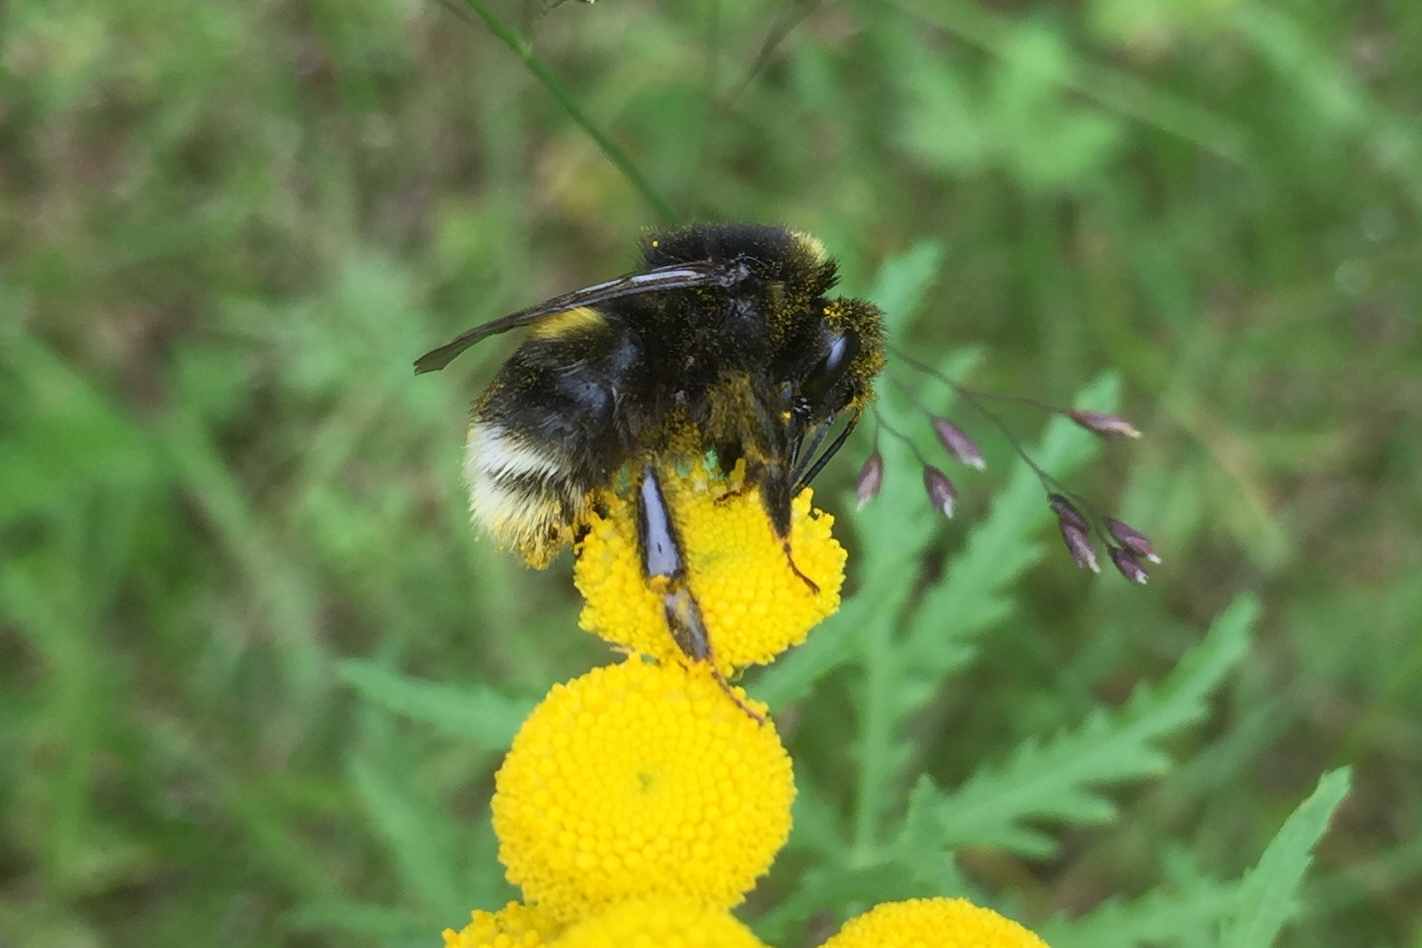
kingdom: Animalia
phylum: Arthropoda
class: Insecta
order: Hymenoptera
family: Apidae
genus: Bombus
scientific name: Bombus soroeensis
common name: Broken-belted humble-bee
